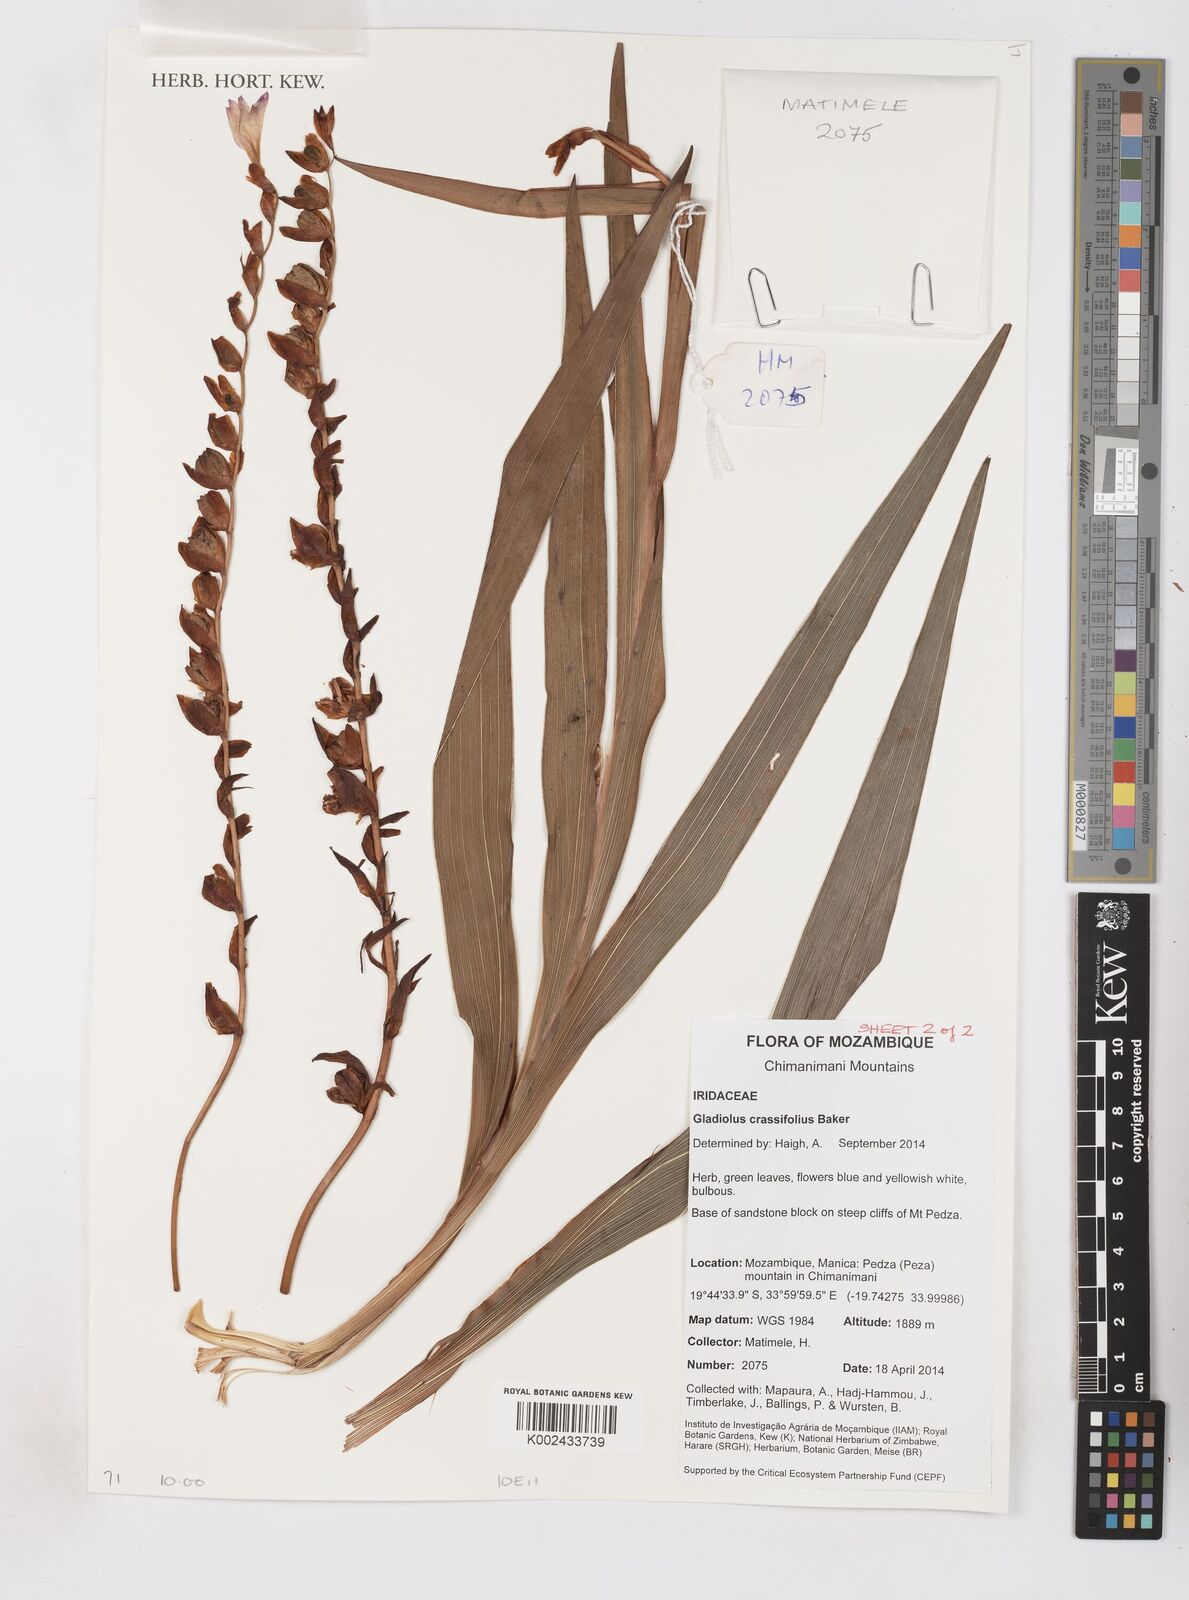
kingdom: Plantae
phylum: Tracheophyta
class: Liliopsida
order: Asparagales
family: Iridaceae
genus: Gladiolus
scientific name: Gladiolus crassifolius
